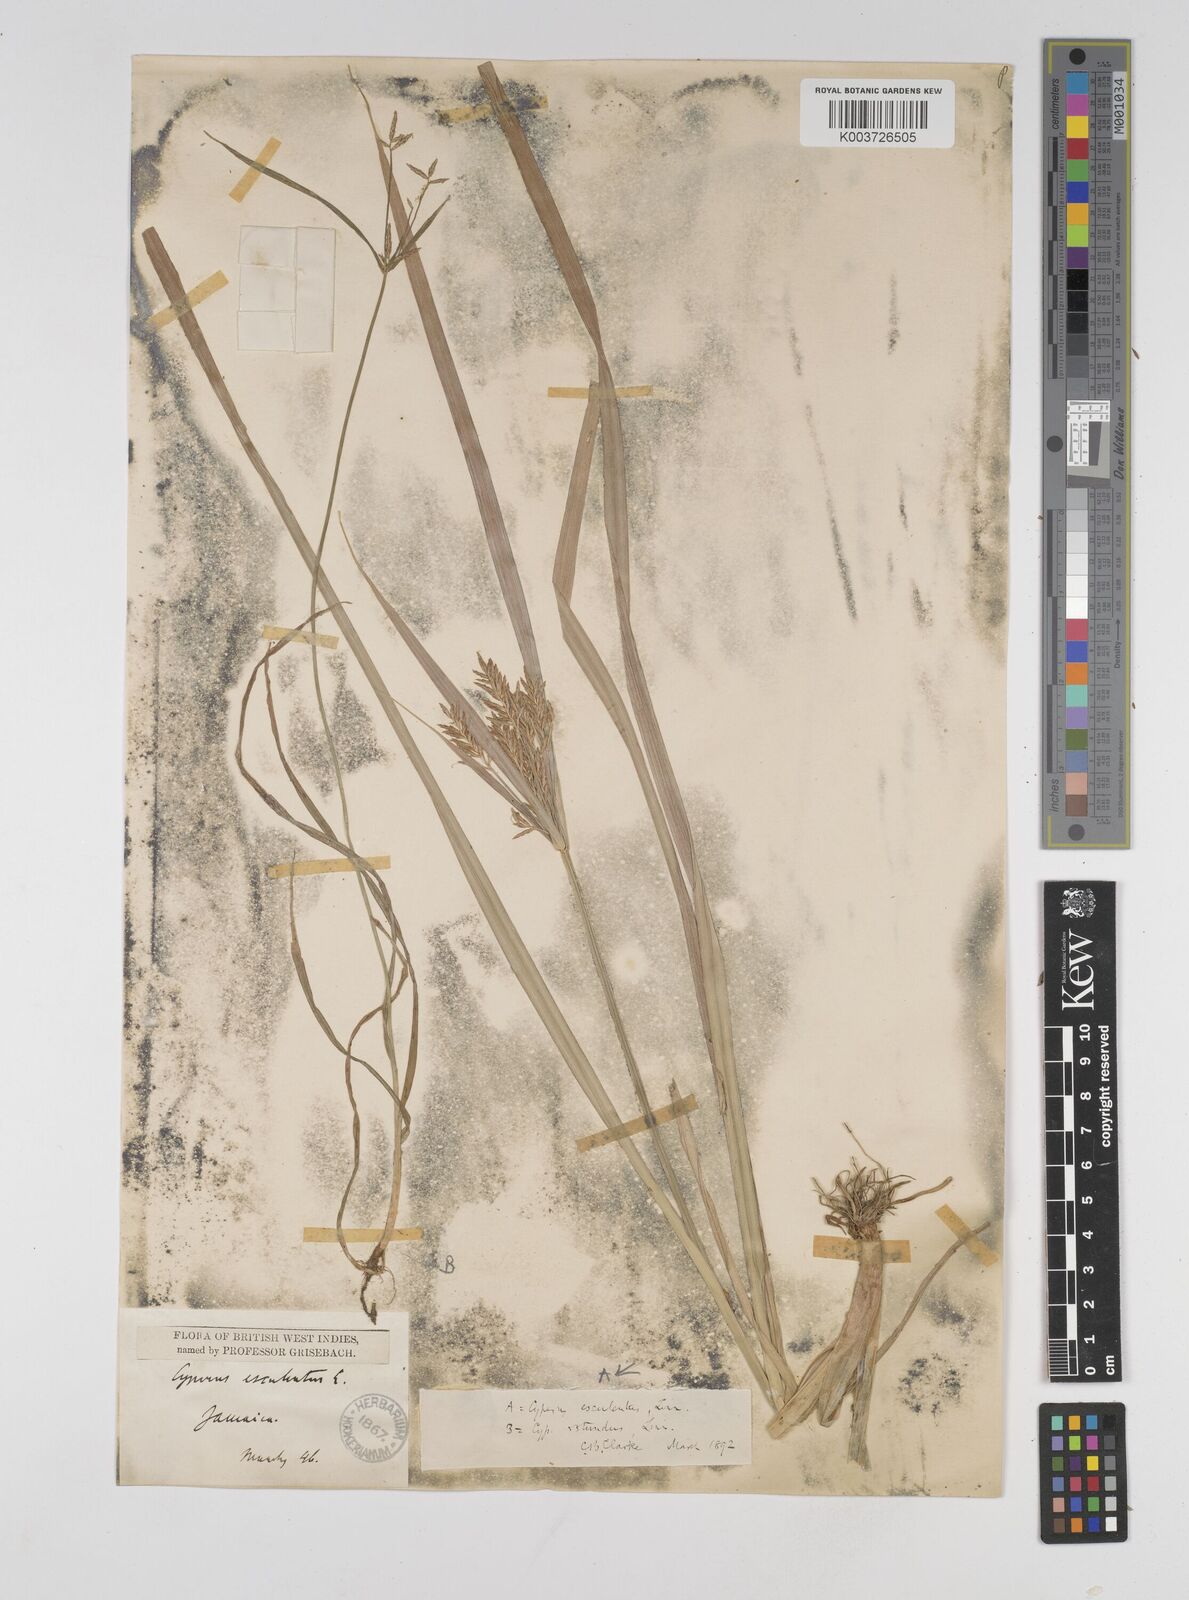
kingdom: Plantae
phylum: Tracheophyta
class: Liliopsida
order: Poales
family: Cyperaceae
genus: Cyperus
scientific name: Cyperus esculentus
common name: Yellow nutsedge
